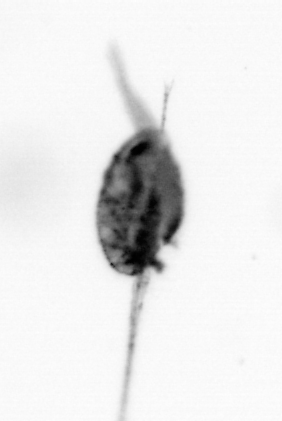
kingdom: Animalia
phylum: Arthropoda
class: Copepoda
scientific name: Copepoda
